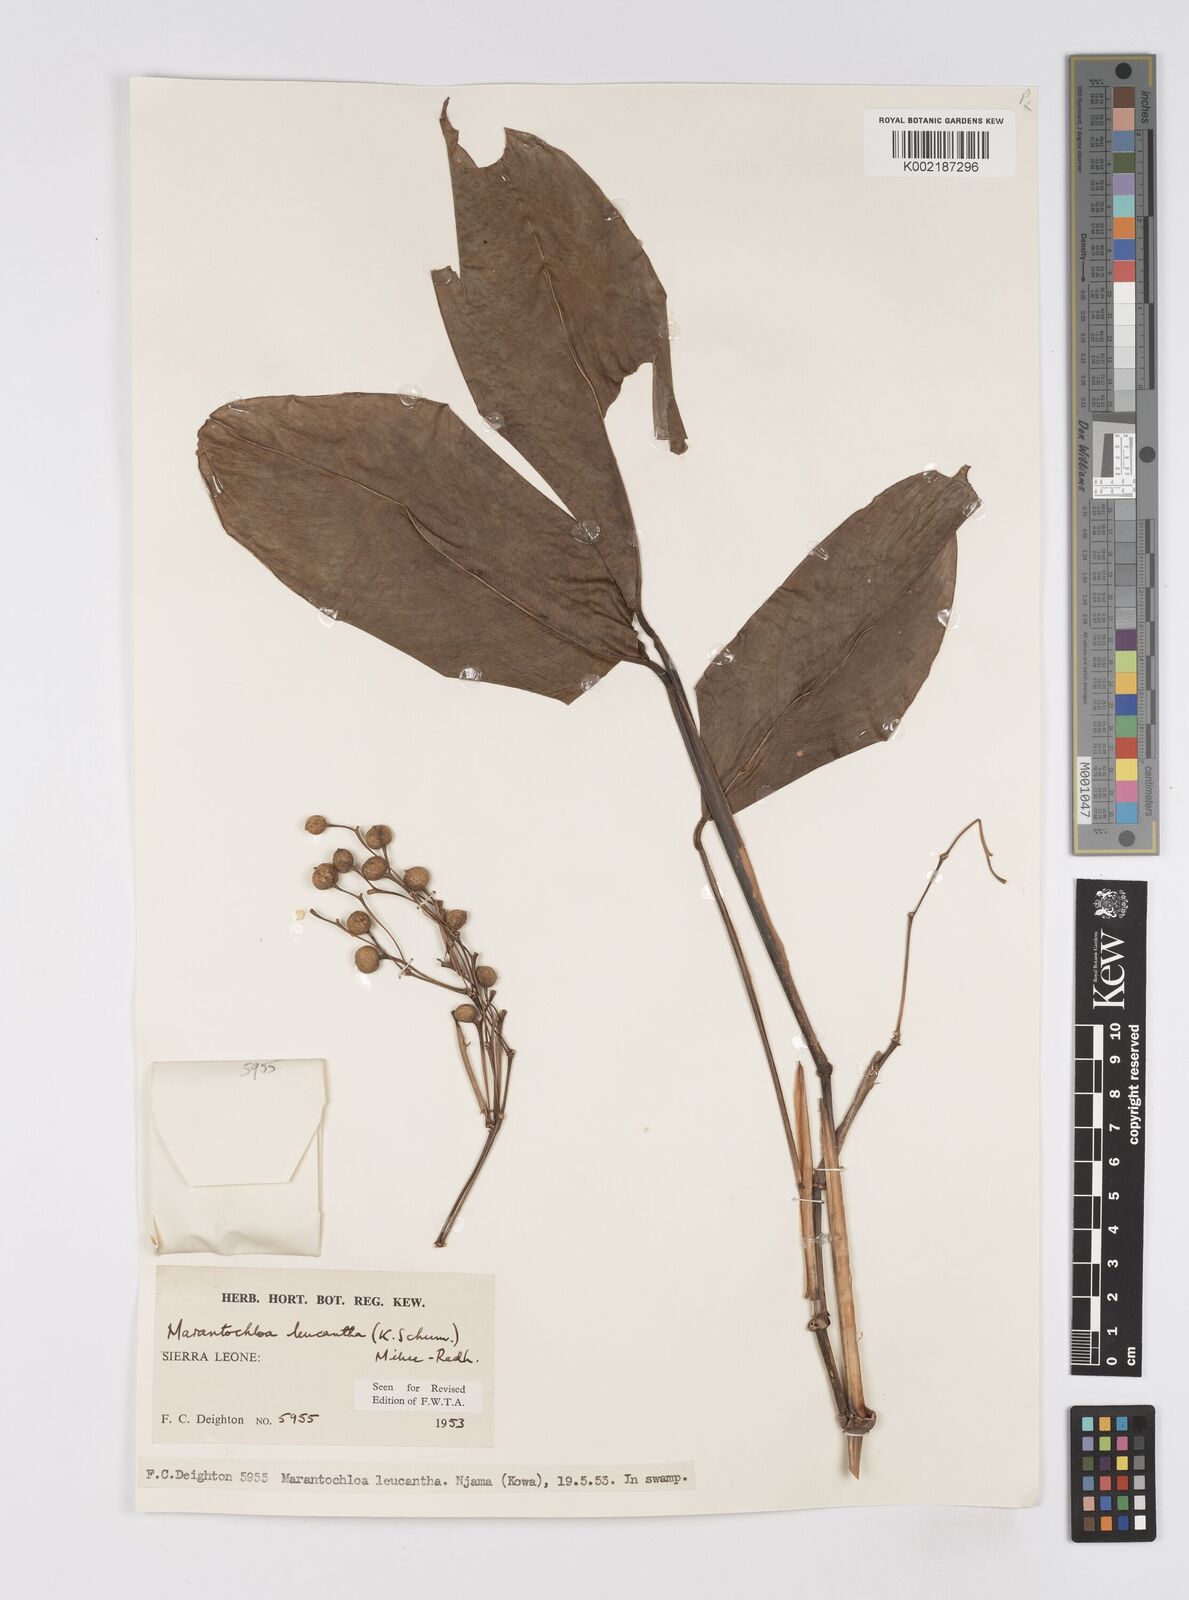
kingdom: Plantae
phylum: Tracheophyta
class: Liliopsida
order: Zingiberales
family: Marantaceae
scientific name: Marantaceae
